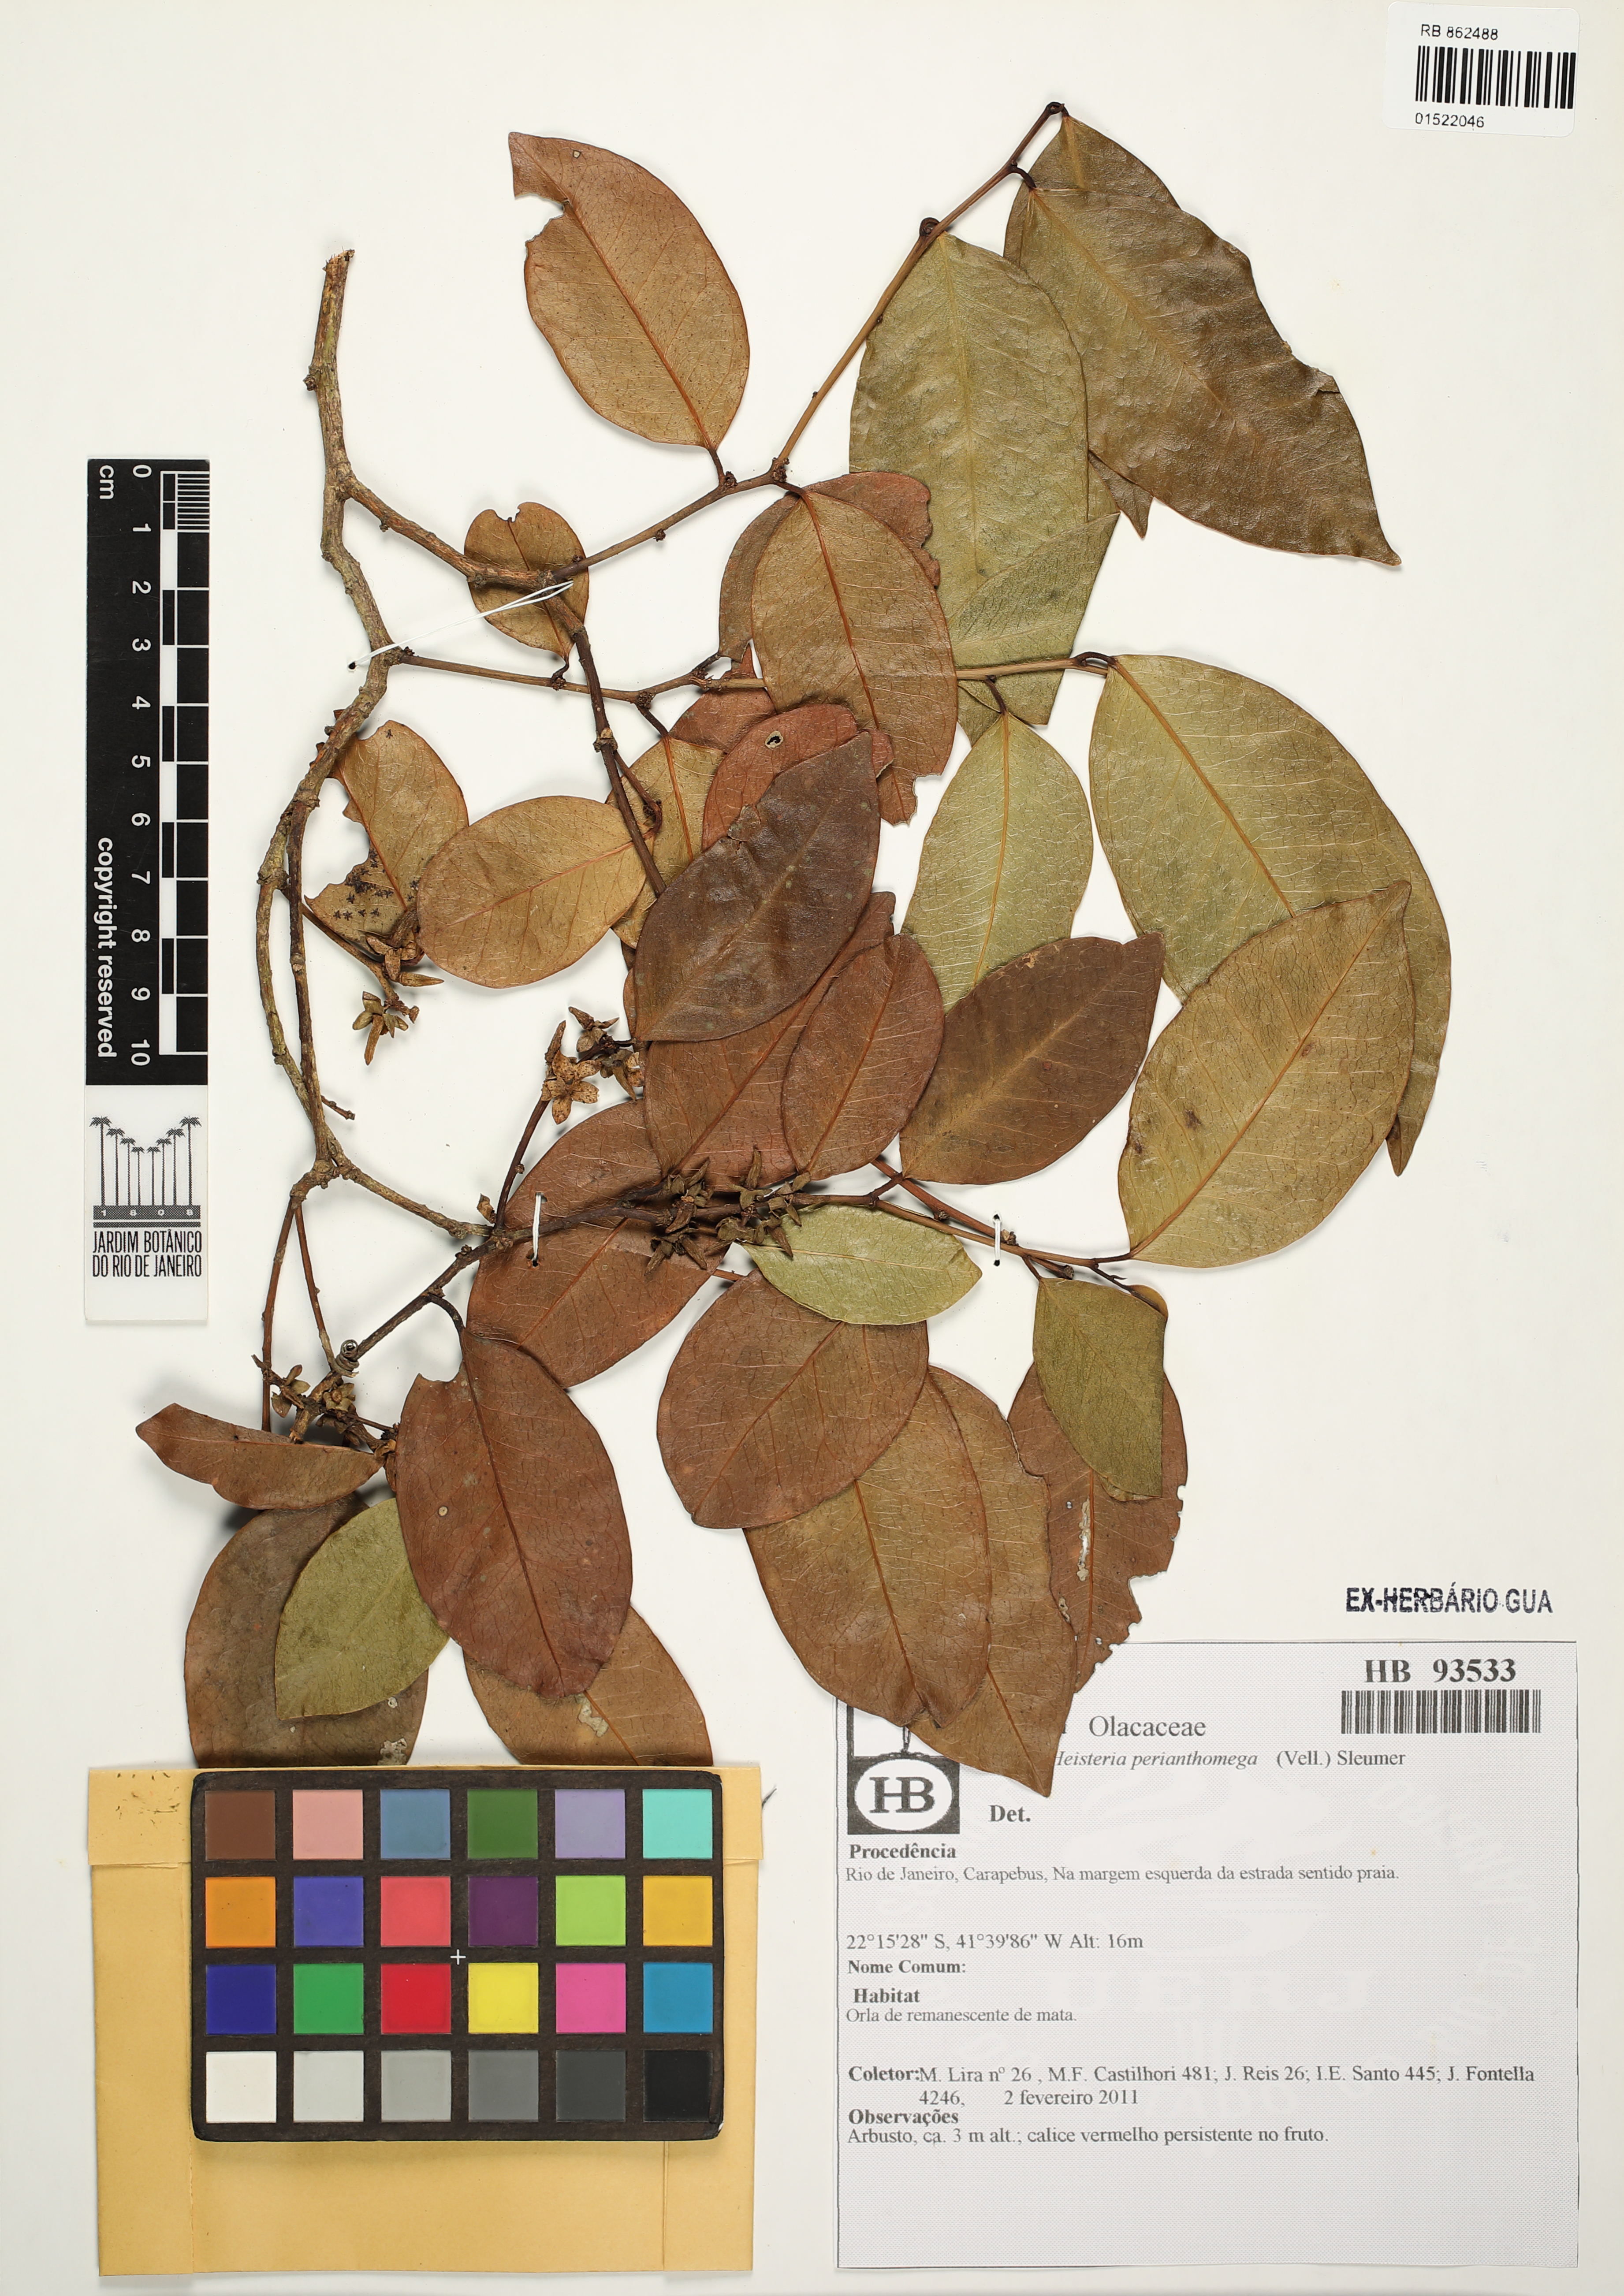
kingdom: Plantae
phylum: Tracheophyta
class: Magnoliopsida
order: Santalales
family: Erythropalaceae
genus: Heisteria
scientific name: Heisteria perianthomega
